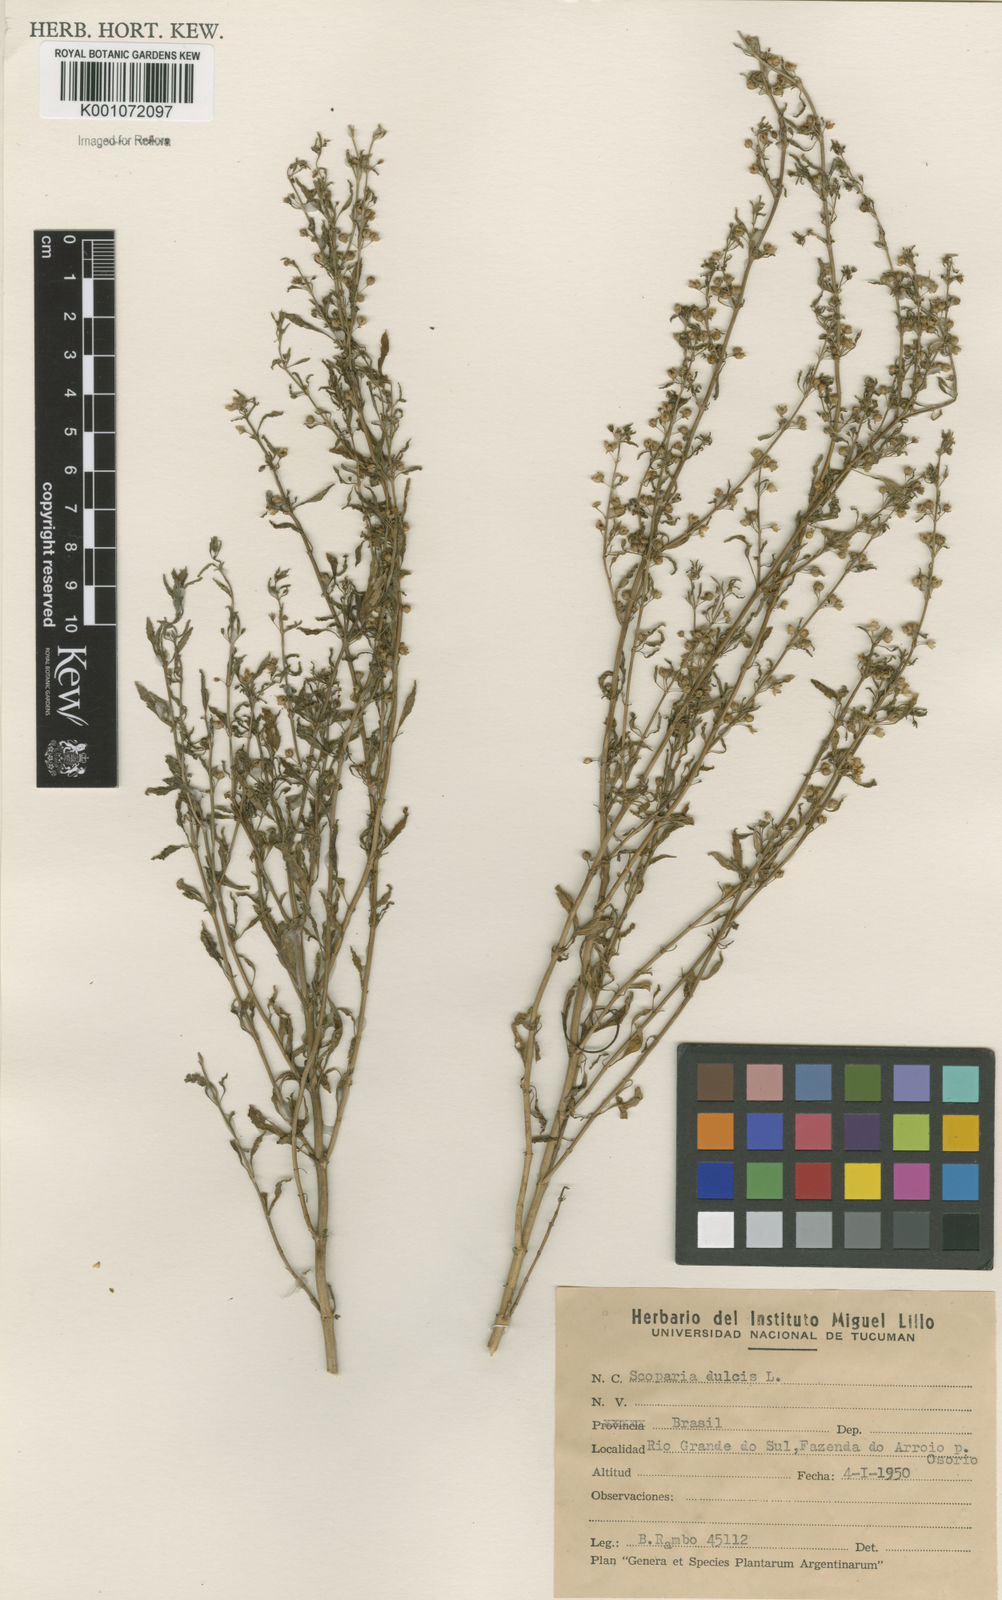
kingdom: Plantae
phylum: Tracheophyta
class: Magnoliopsida
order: Lamiales
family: Plantaginaceae
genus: Scoparia
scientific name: Scoparia dulcis
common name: Scoparia-weed
